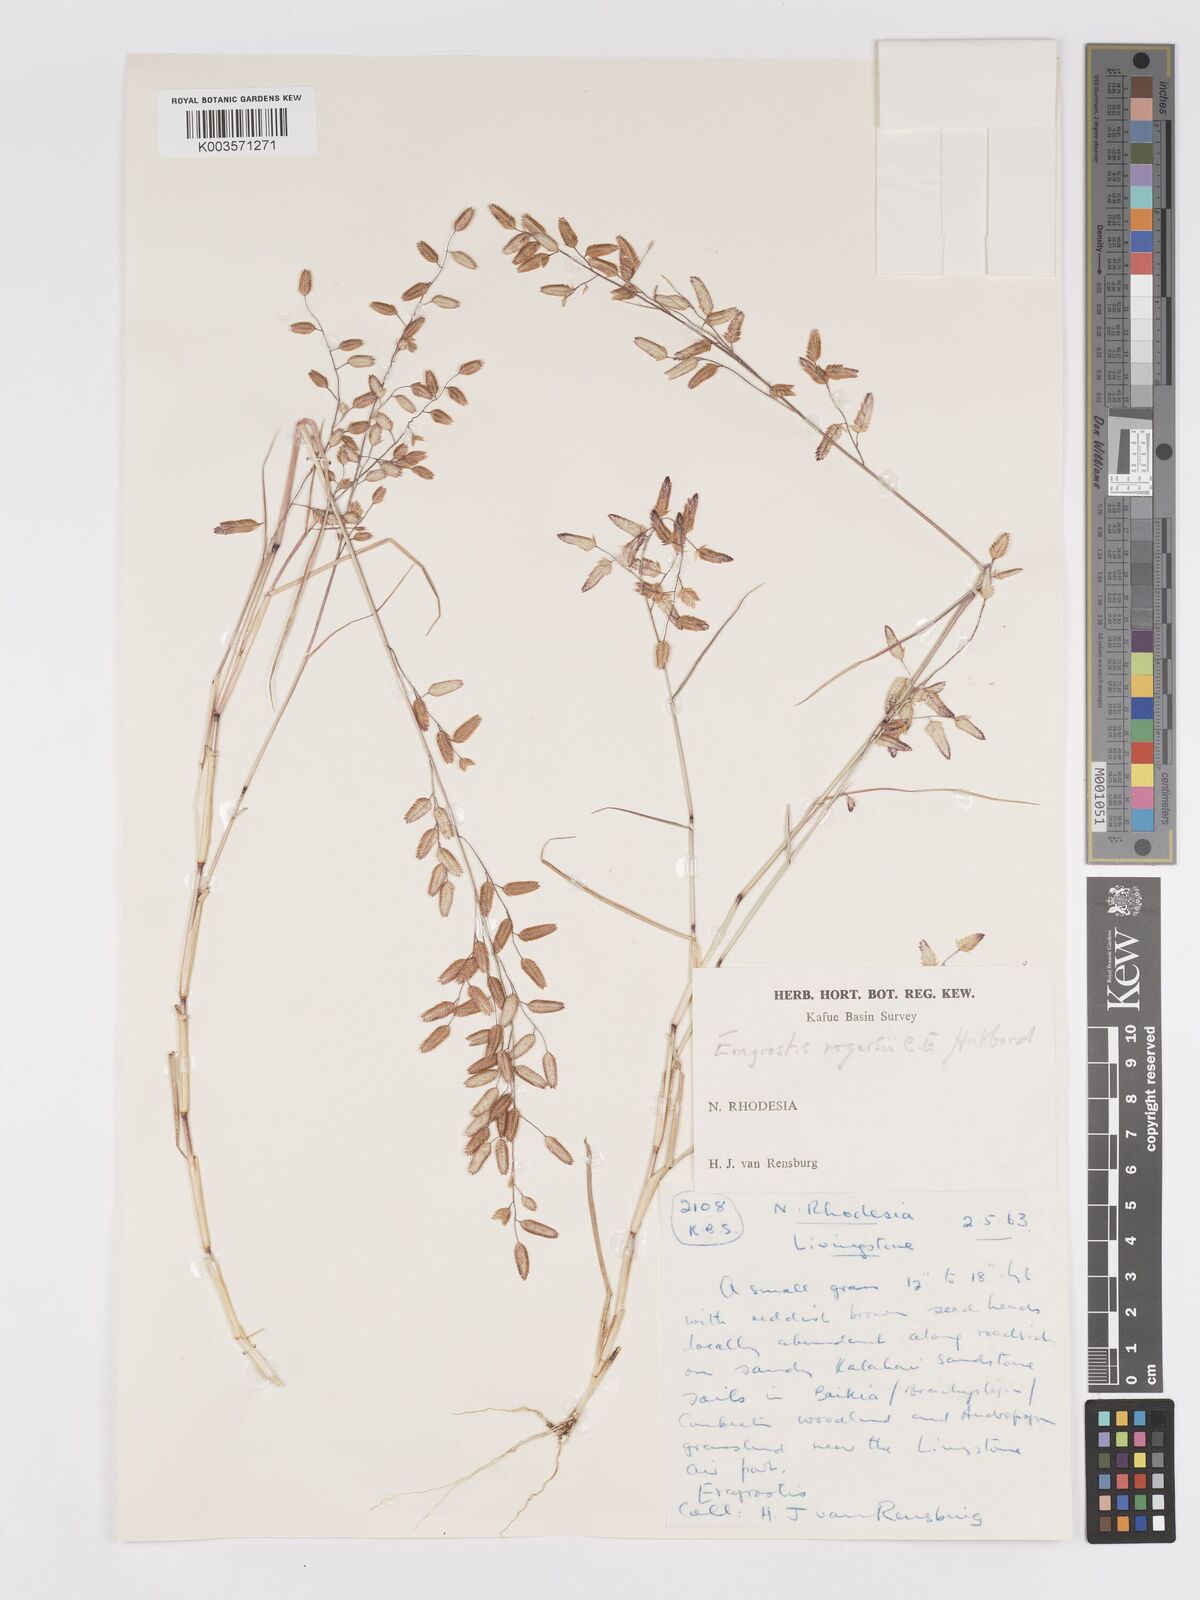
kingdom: Plantae
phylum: Tracheophyta
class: Liliopsida
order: Poales
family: Poaceae
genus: Eragrostis
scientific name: Eragrostis rogersii
